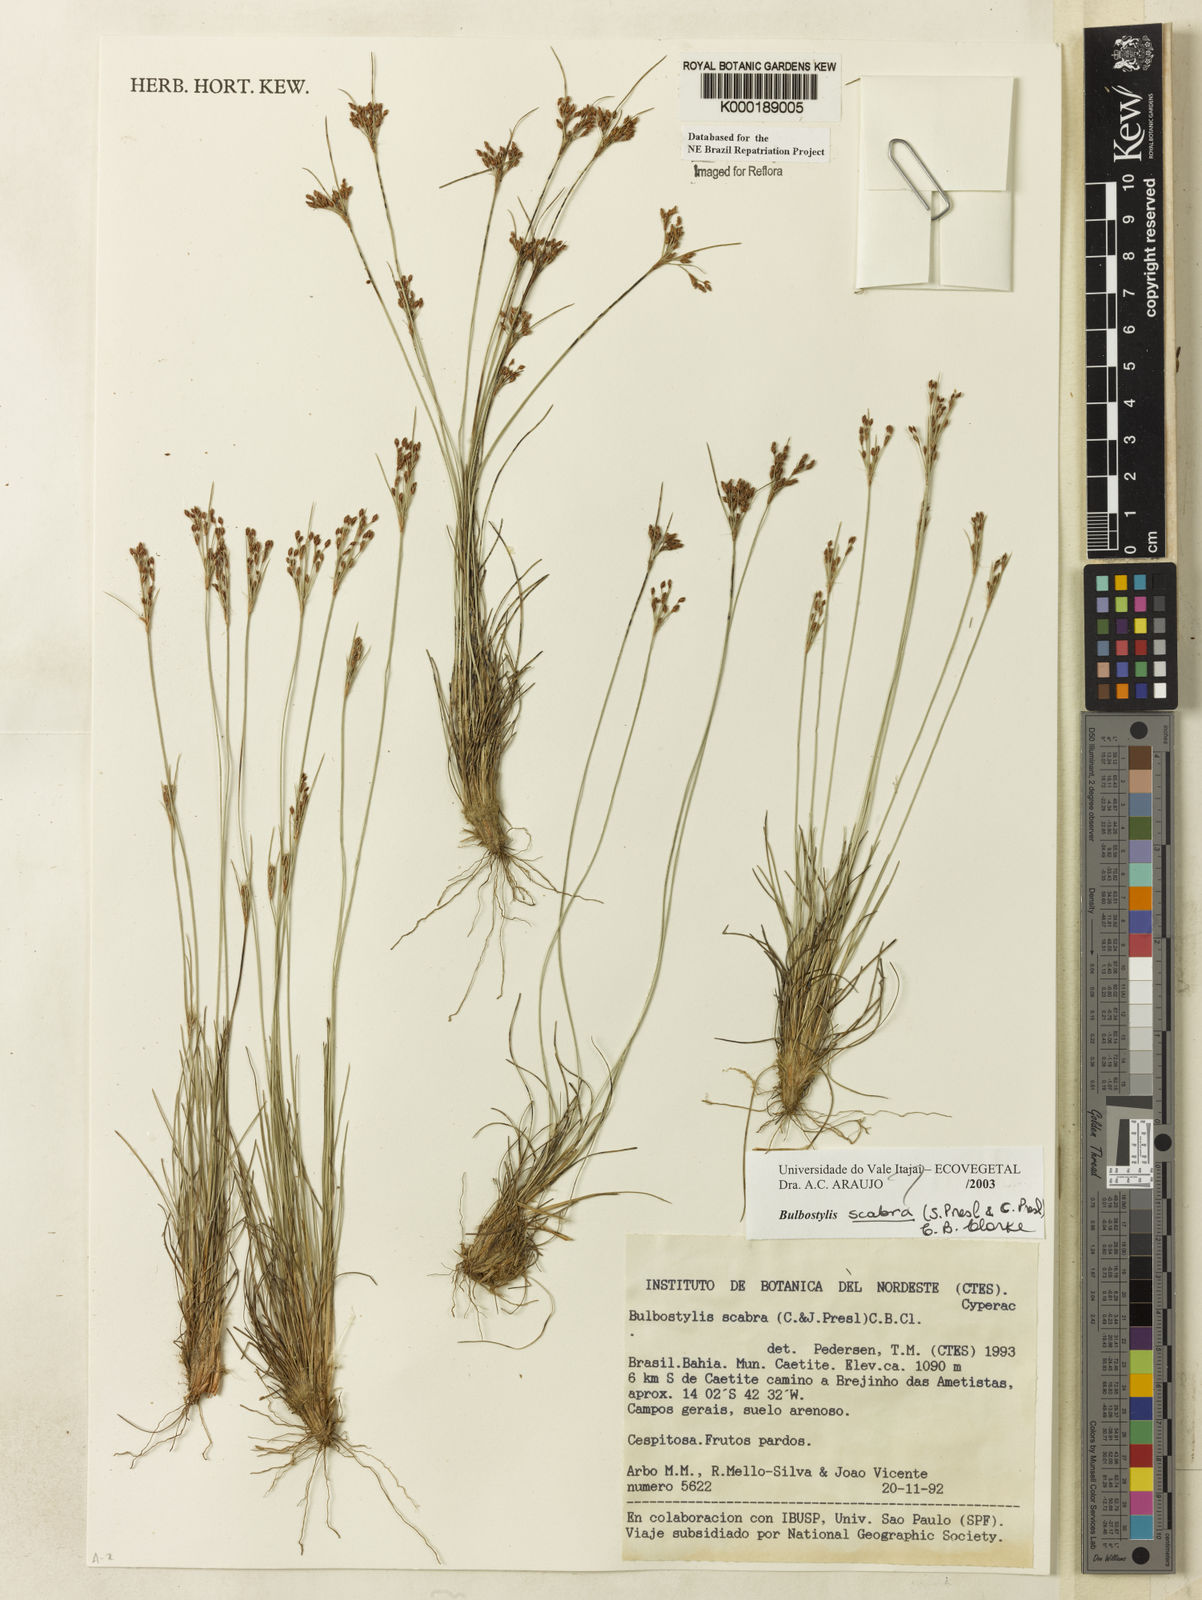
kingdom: Plantae
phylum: Tracheophyta
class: Liliopsida
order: Poales
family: Cyperaceae
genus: Bulbostylis
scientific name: Bulbostylis scabra
